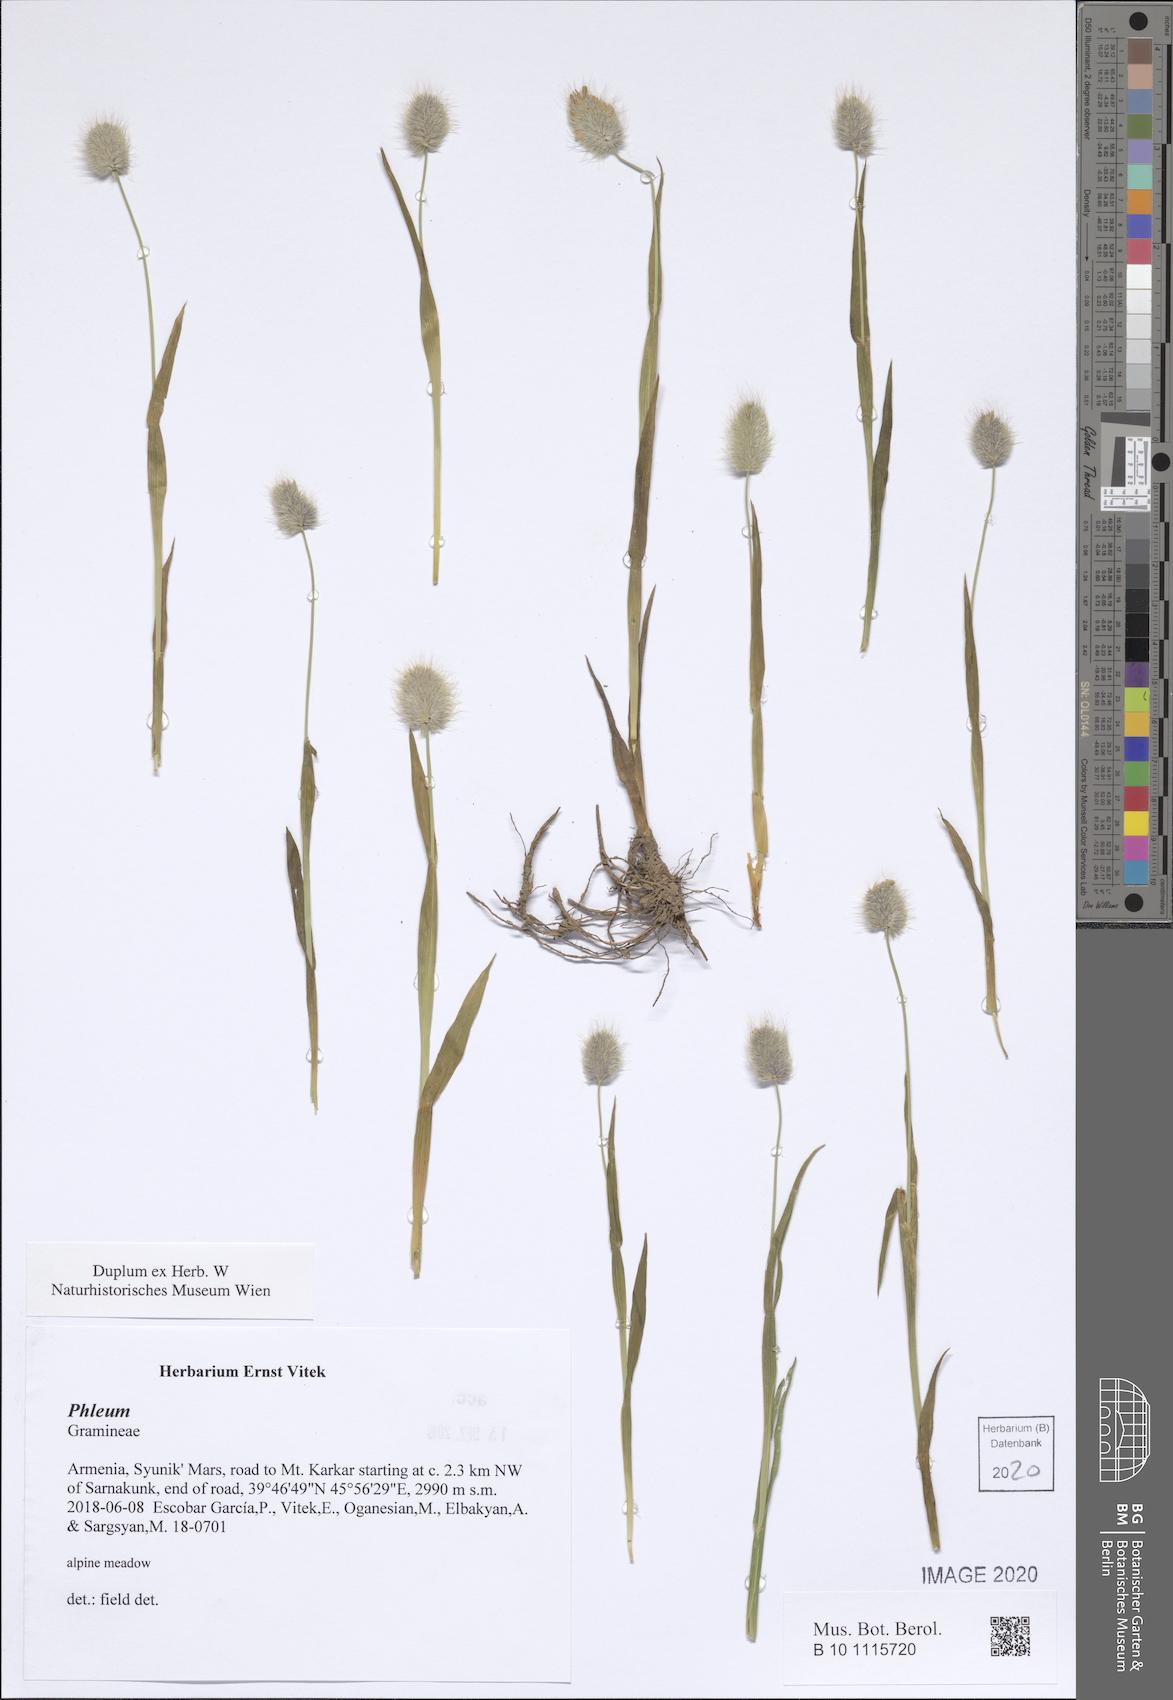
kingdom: Plantae
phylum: Tracheophyta
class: Liliopsida
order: Poales
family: Poaceae
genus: Phleum
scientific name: Phleum
